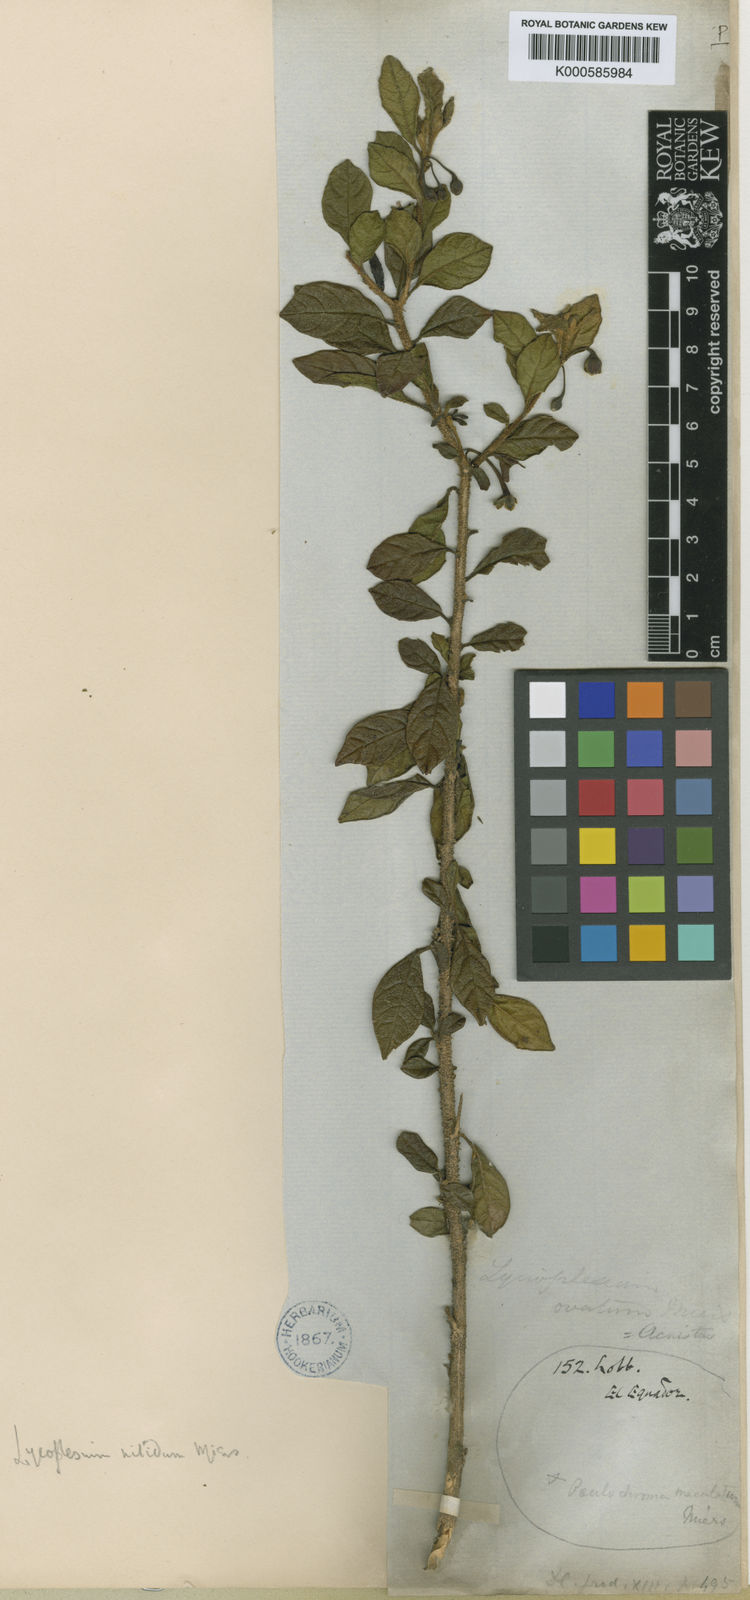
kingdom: Animalia
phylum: Arthropoda
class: Insecta
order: Hemiptera
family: Pentatomidae
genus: Poecilochroma
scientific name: Poecilochroma
